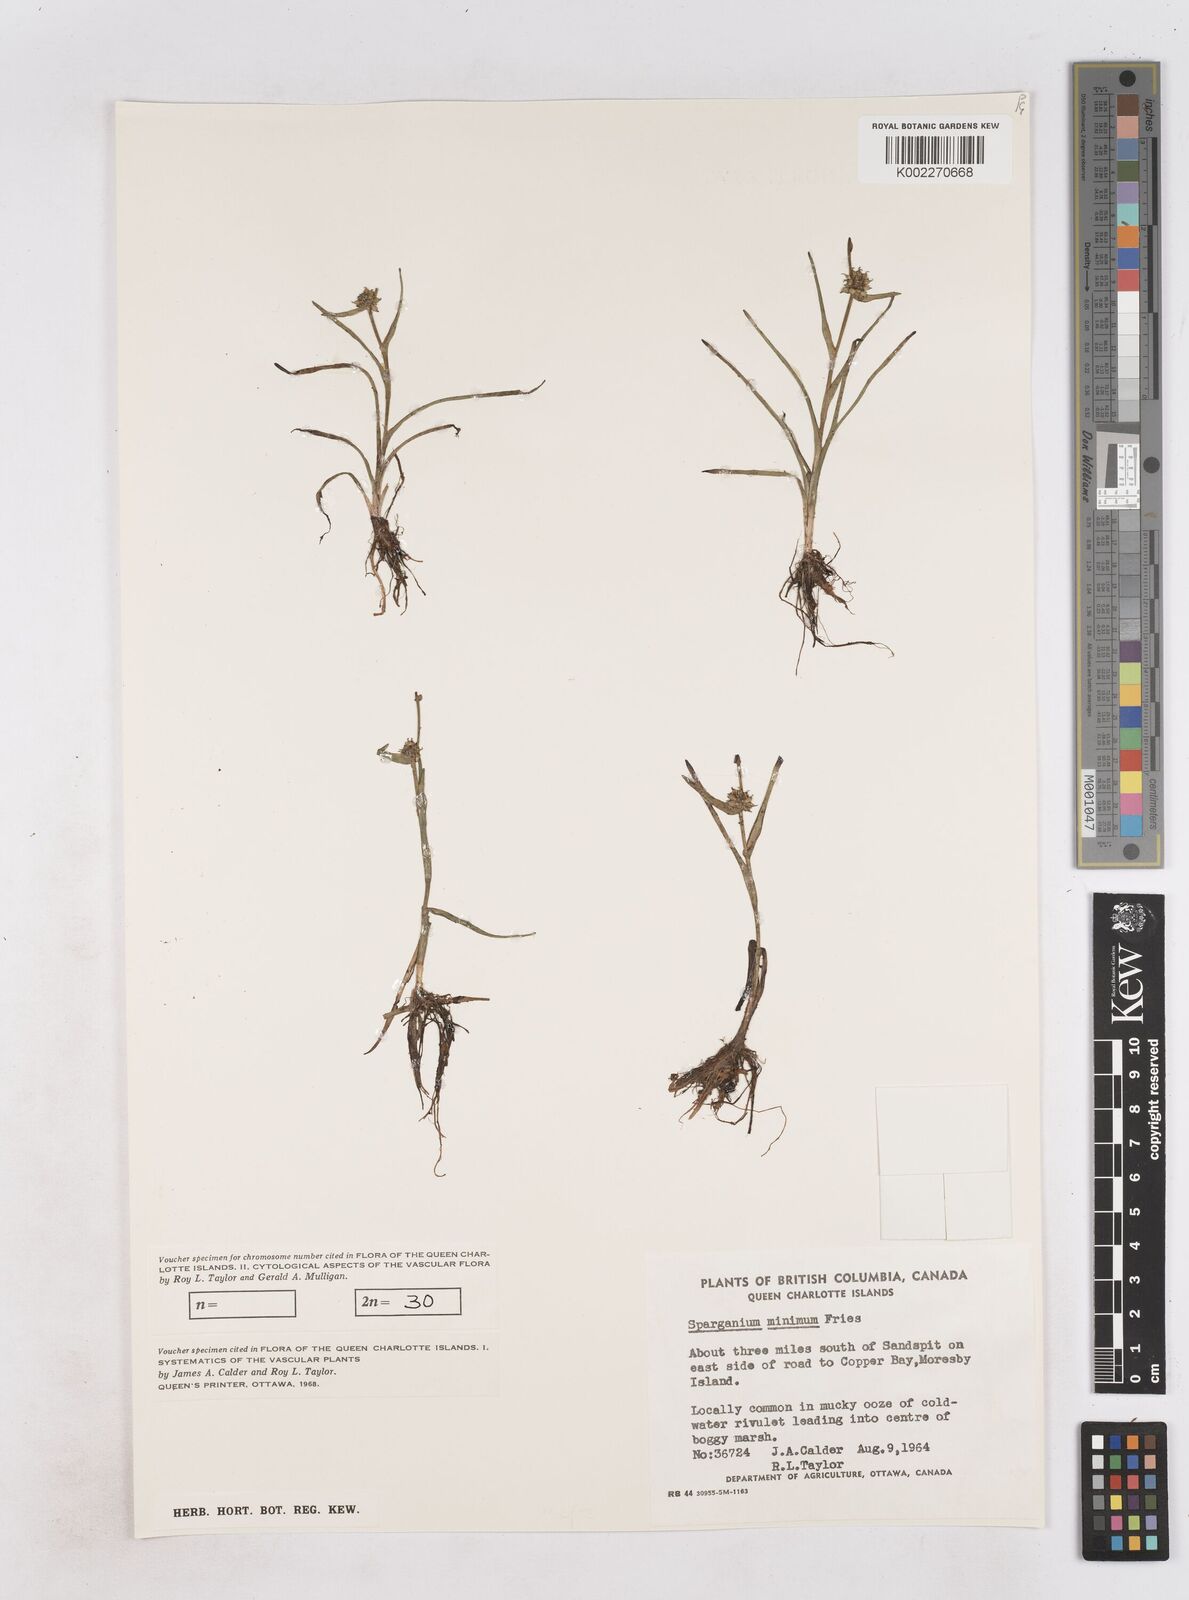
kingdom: Plantae
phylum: Tracheophyta
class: Liliopsida
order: Poales
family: Typhaceae
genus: Sparganium
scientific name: Sparganium natans
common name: Least bur-reed
